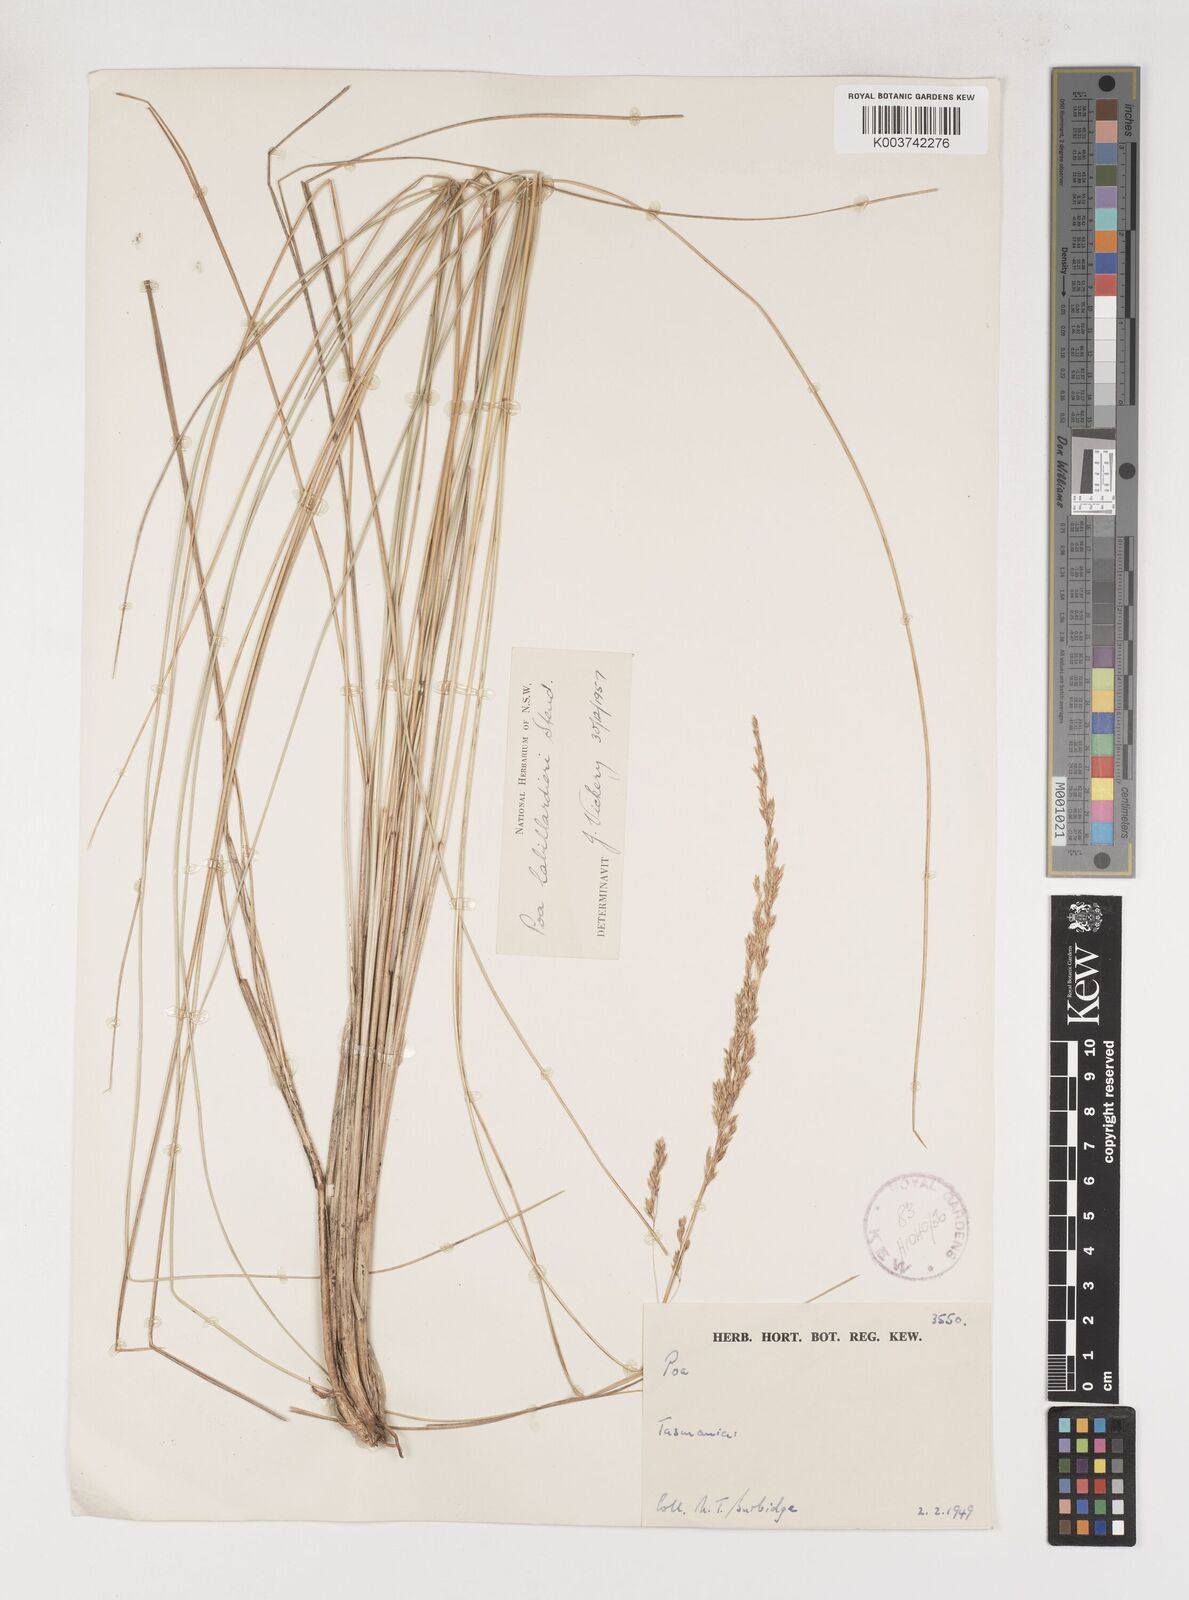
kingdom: Plantae
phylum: Tracheophyta
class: Liliopsida
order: Poales
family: Poaceae
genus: Poa
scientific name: Poa labillardierei
